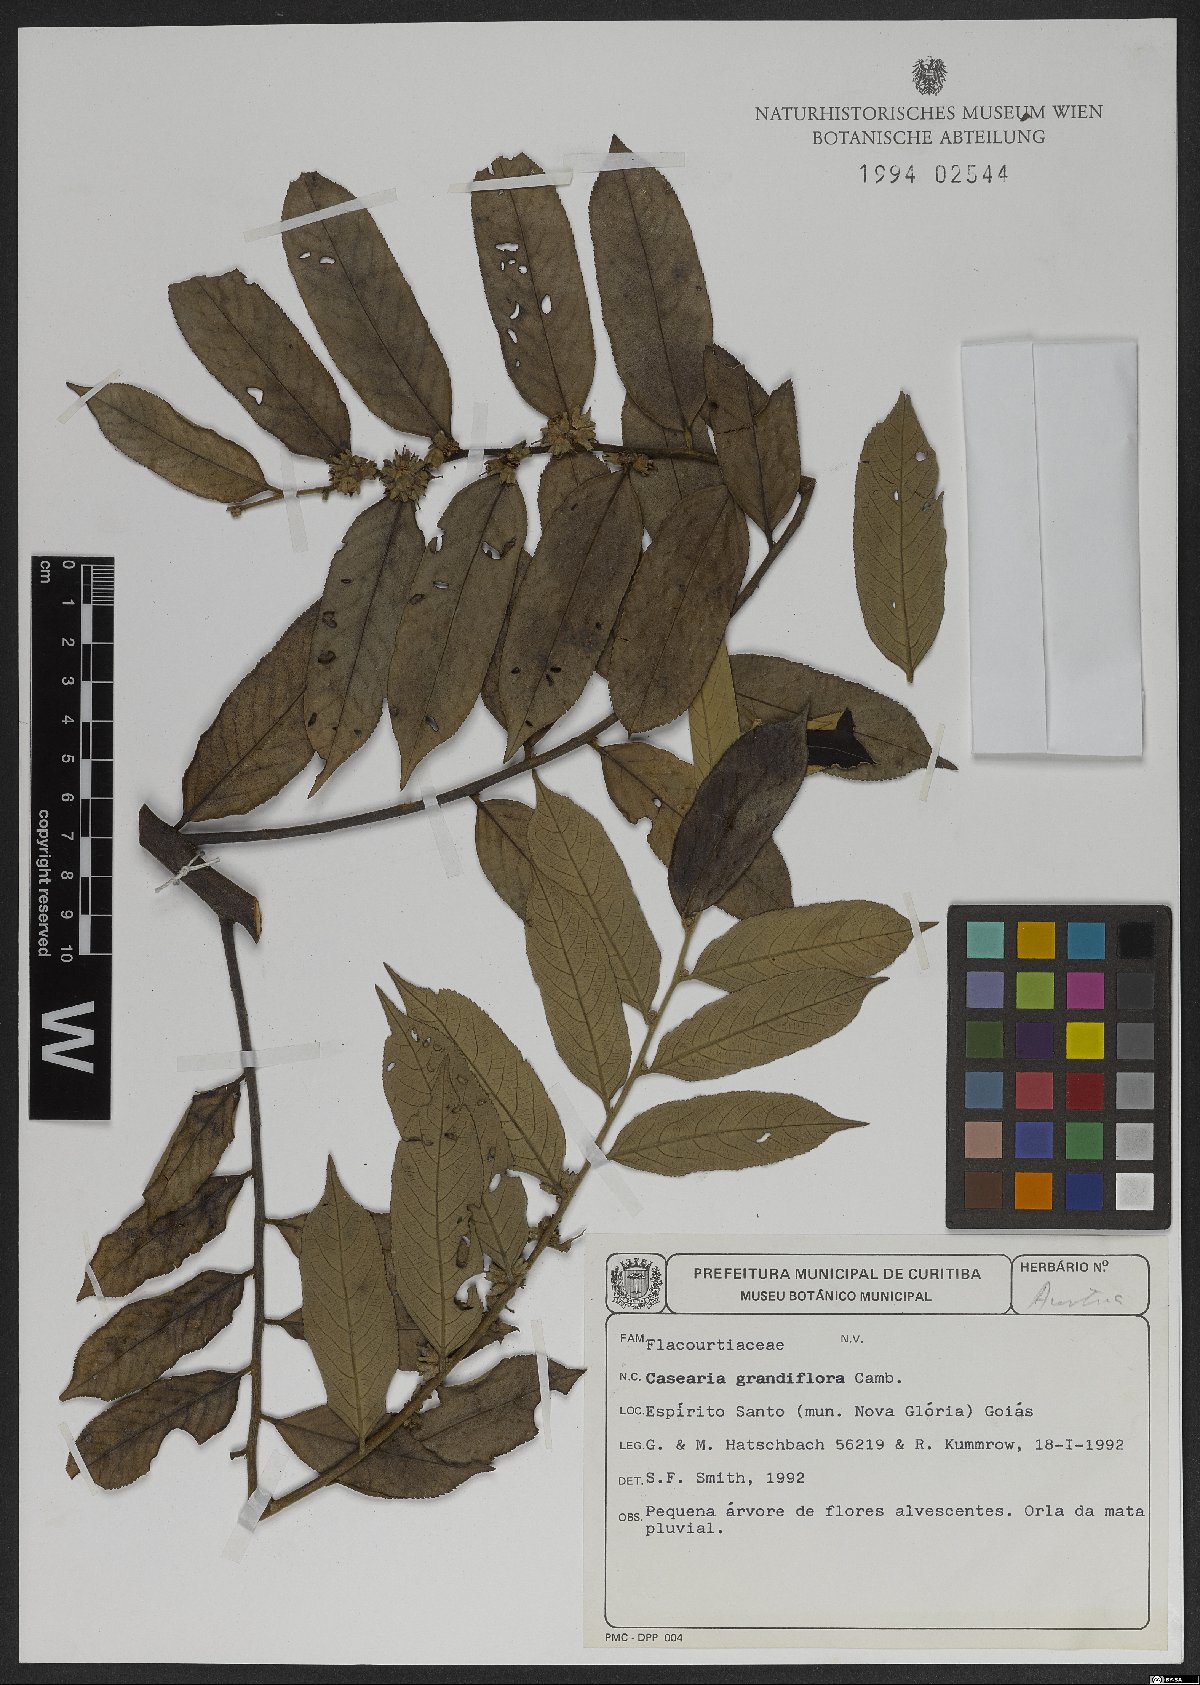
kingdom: Plantae
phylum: Tracheophyta
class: Magnoliopsida
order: Malpighiales
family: Salicaceae
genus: Casearia
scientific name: Casearia grandiflora
